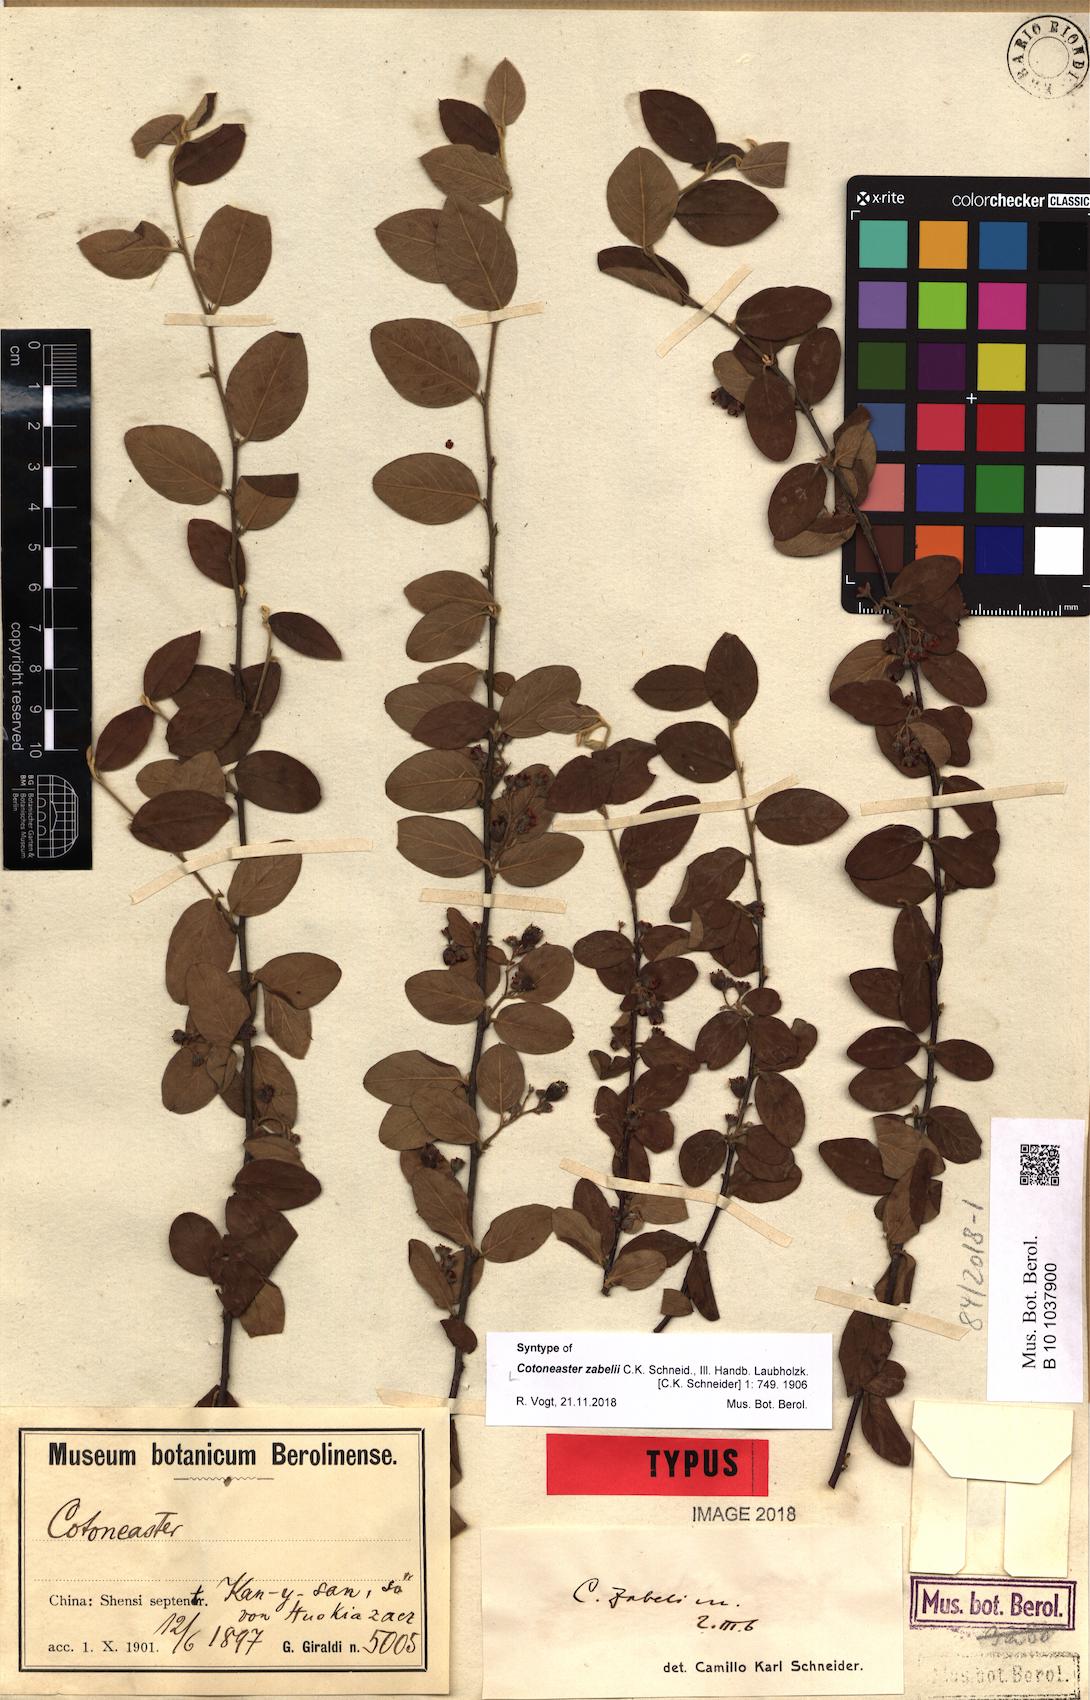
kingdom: Plantae
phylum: Tracheophyta
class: Magnoliopsida
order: Rosales
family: Rosaceae
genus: Cotoneaster
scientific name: Cotoneaster zabelii
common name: Cherryred cotoneaster
